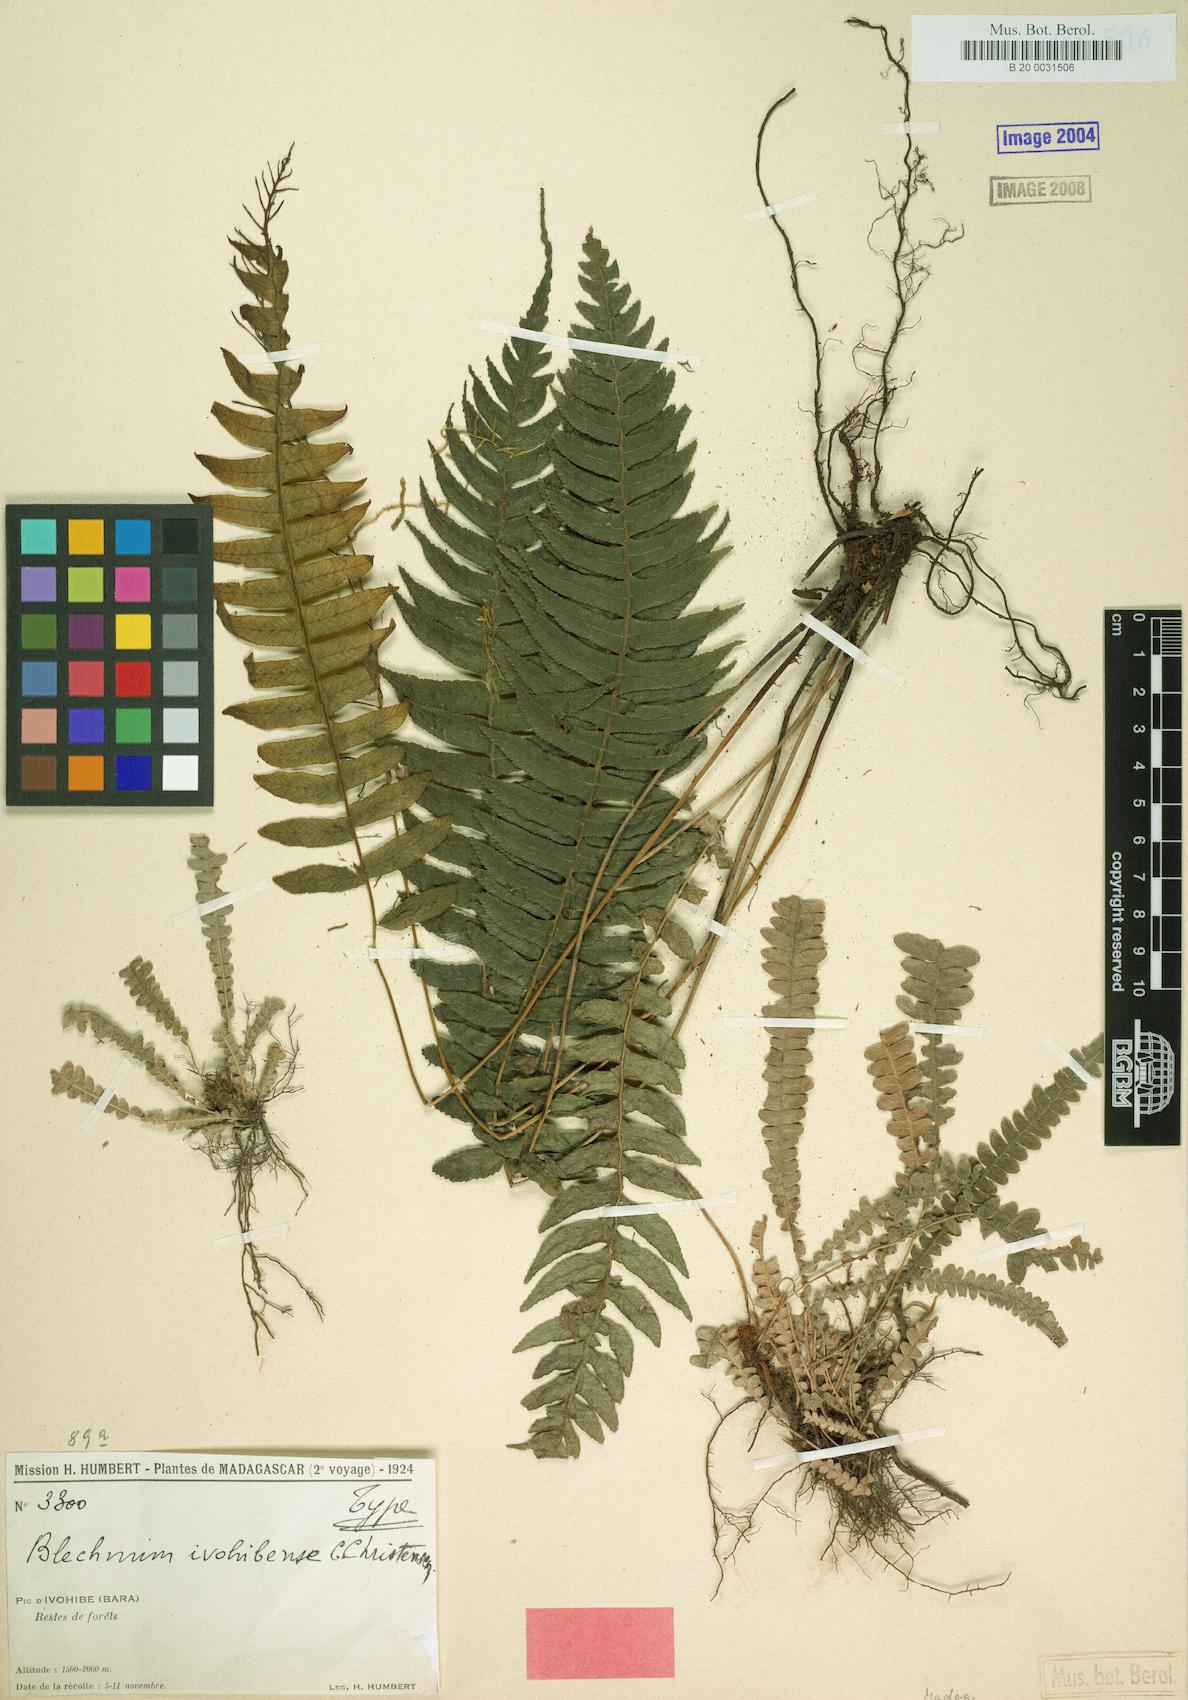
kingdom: Plantae
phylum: Tracheophyta
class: Polypodiopsida
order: Polypodiales
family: Blechnaceae
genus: Cranfillia
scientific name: Cranfillia bakeri
